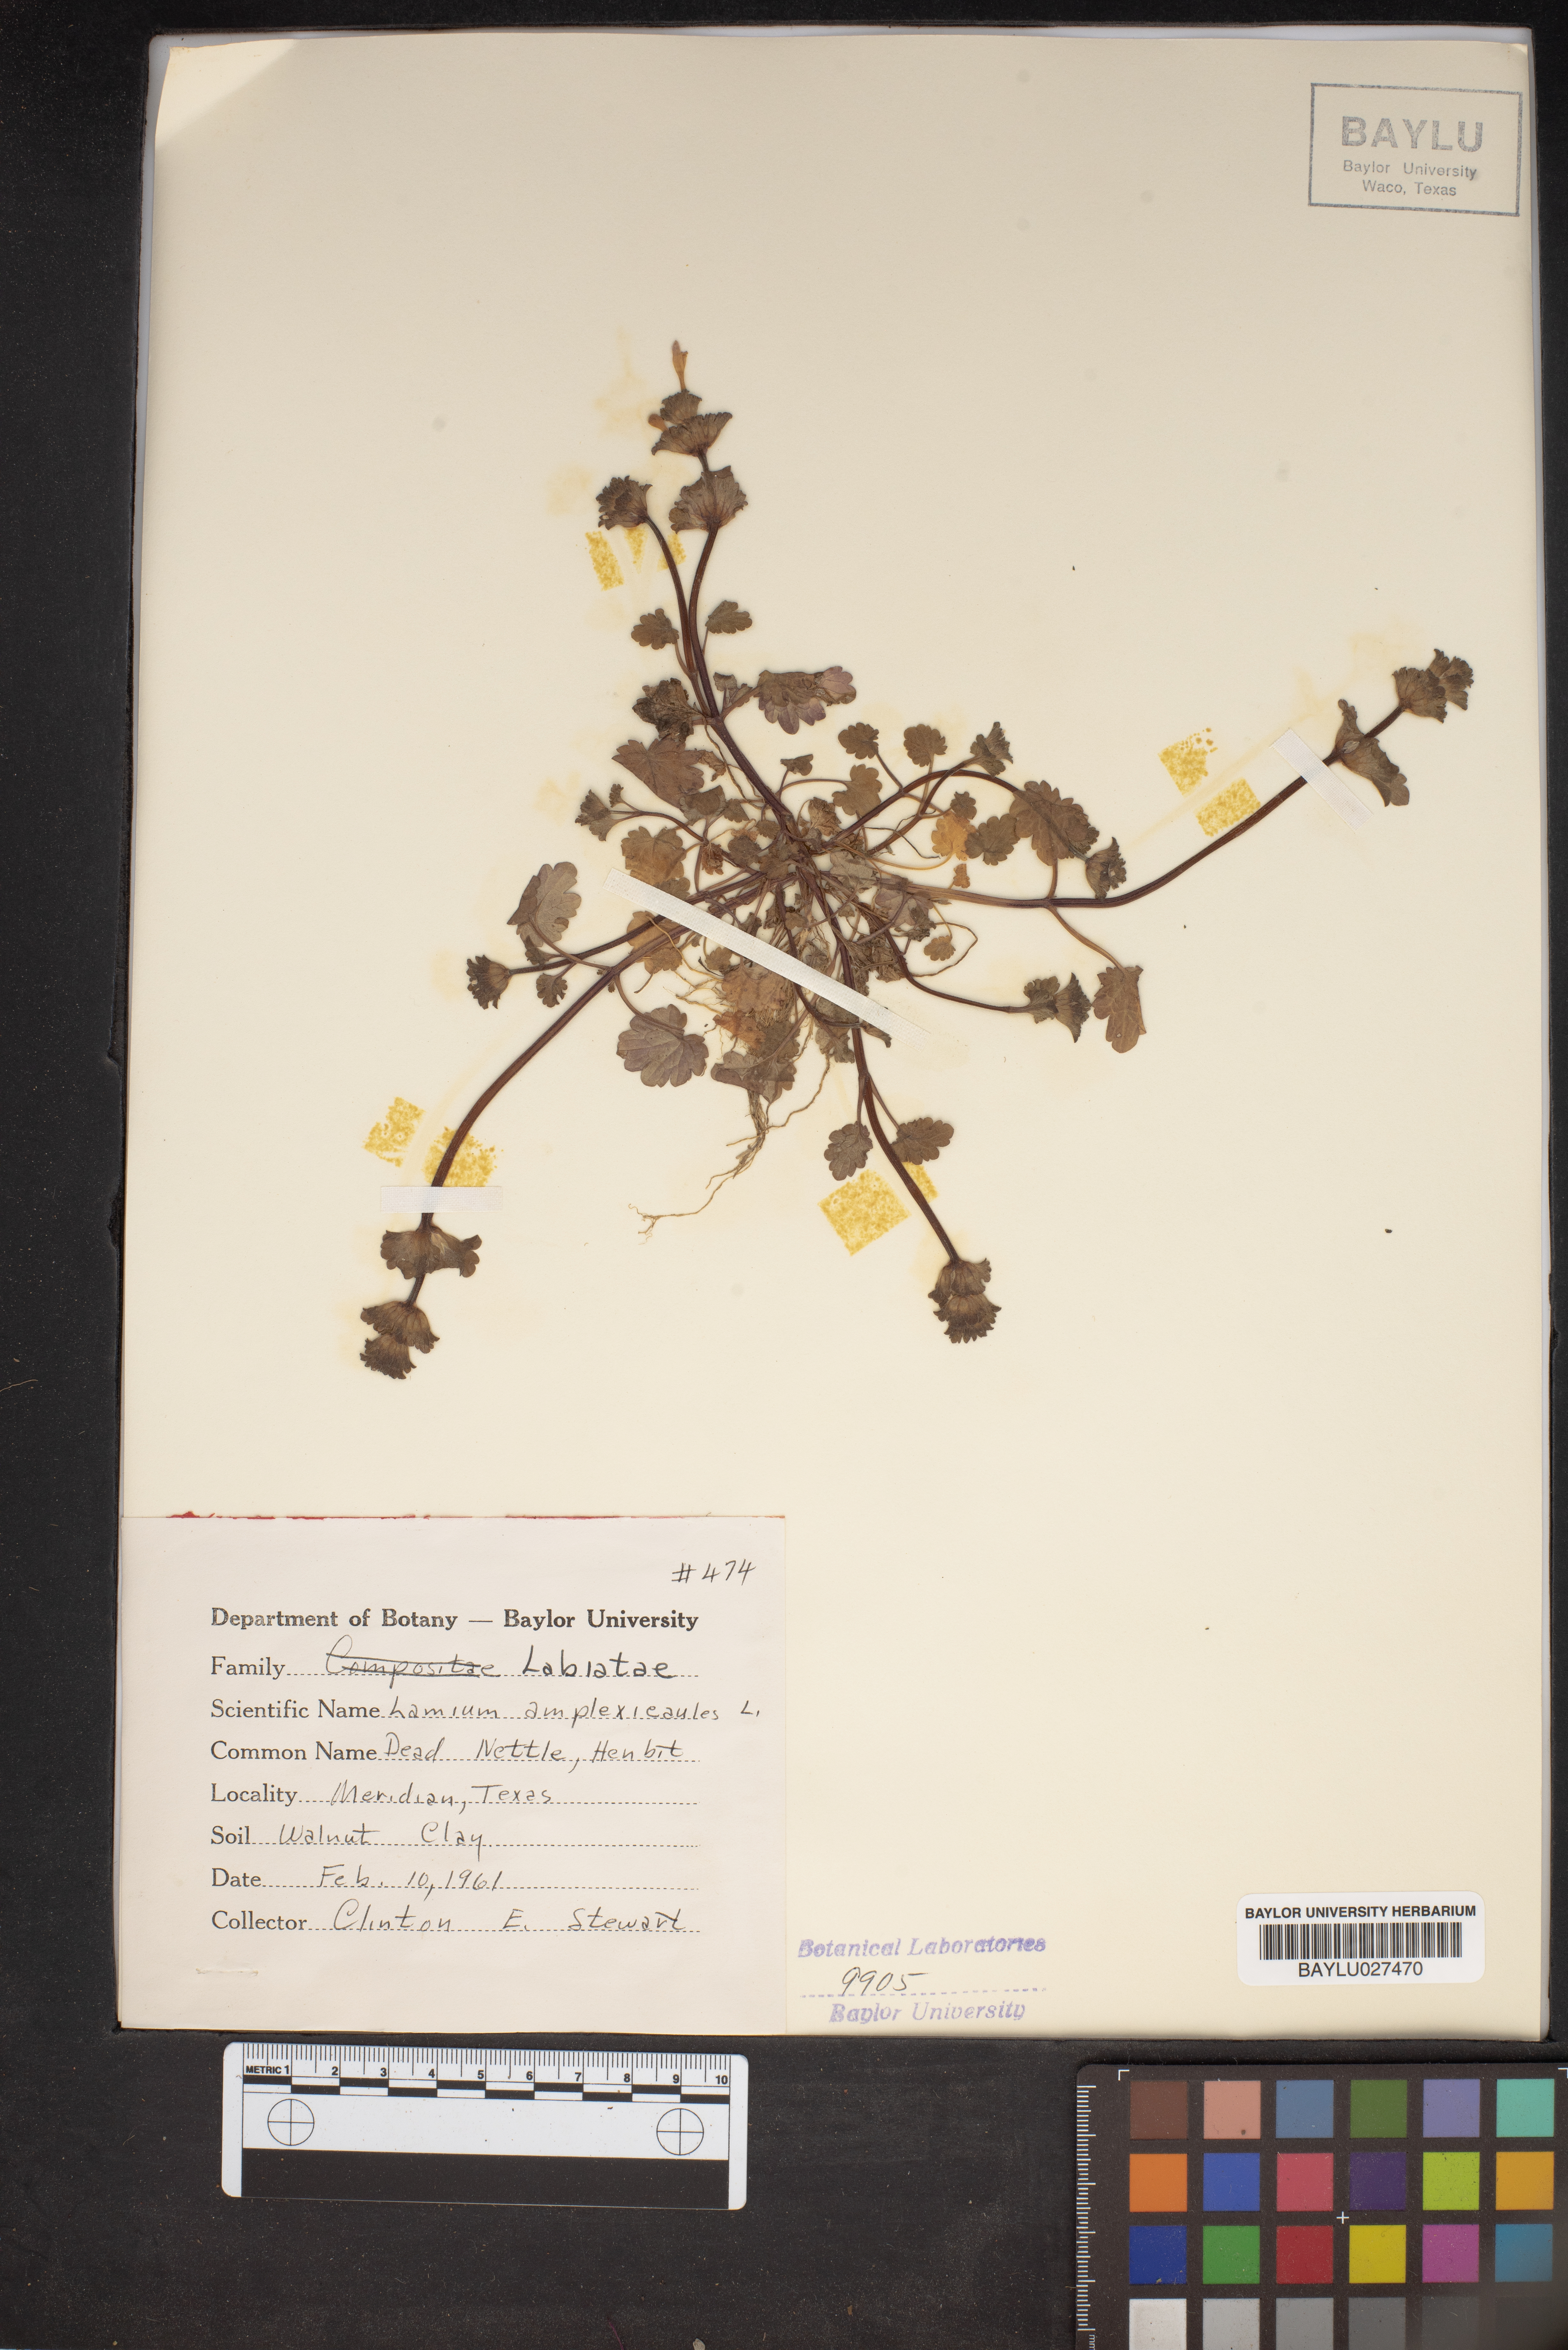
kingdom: Plantae
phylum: Tracheophyta
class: Magnoliopsida
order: Lamiales
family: Lamiaceae
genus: Lamium
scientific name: Lamium amplexicaule
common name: Henbit dead-nettle
